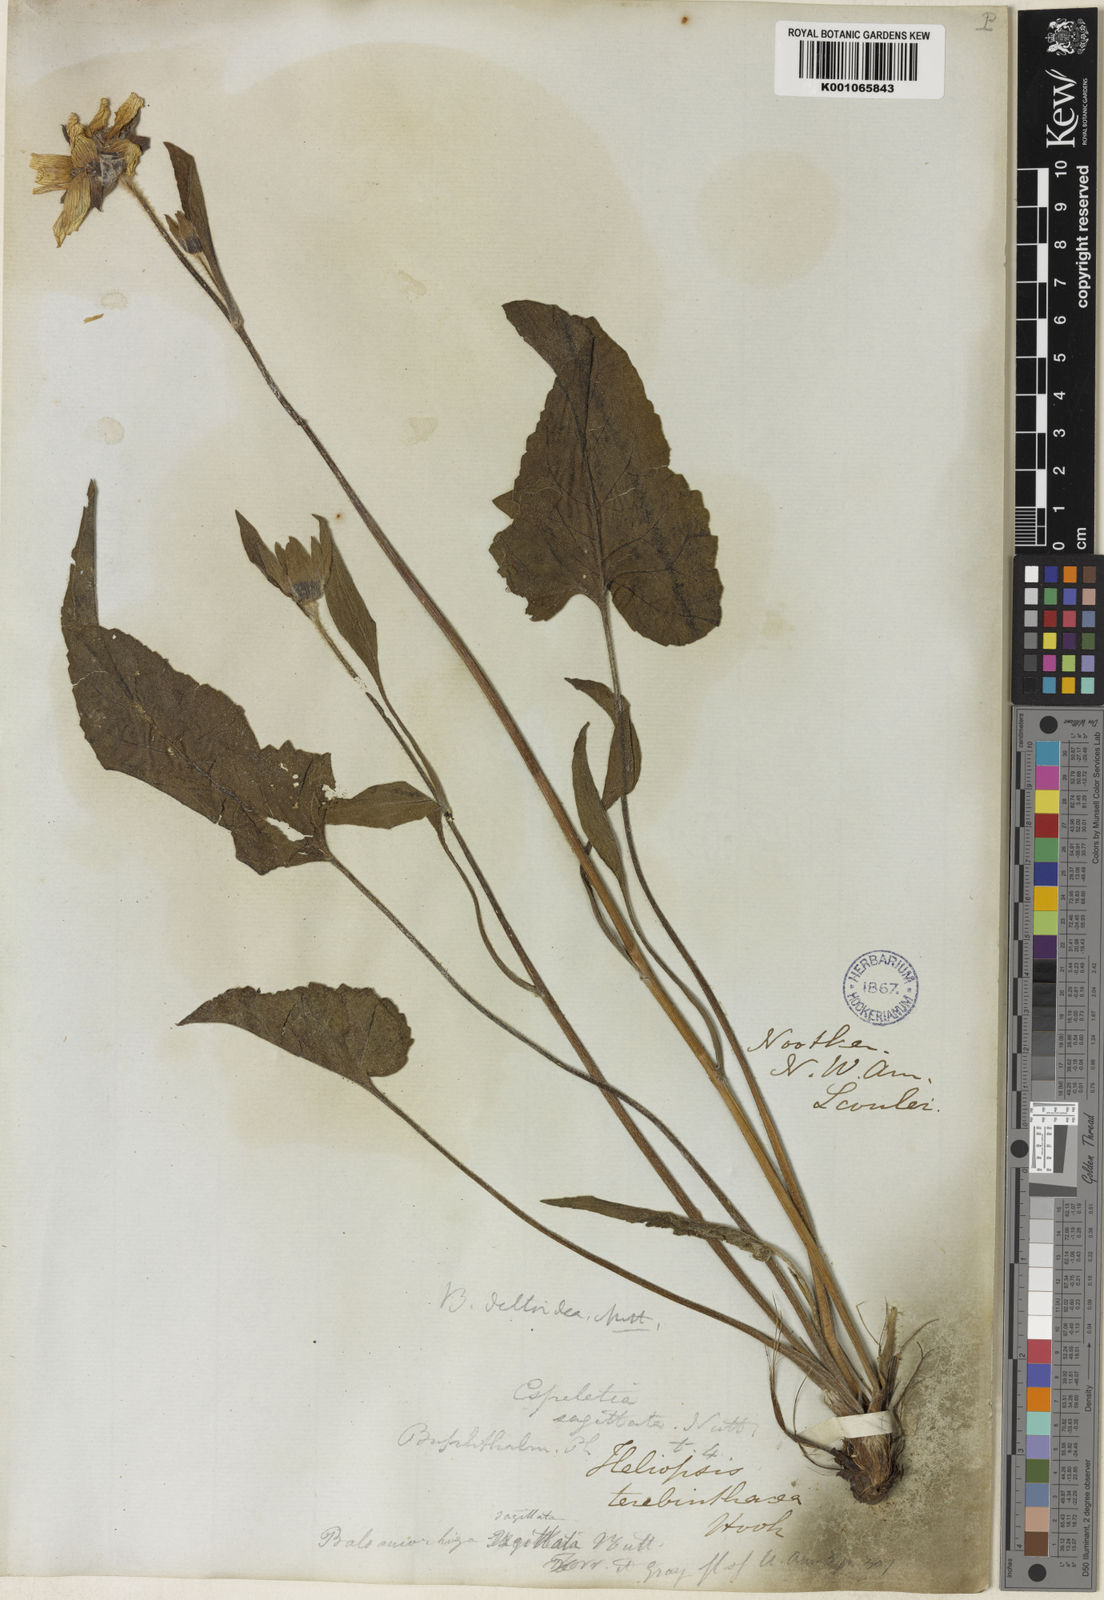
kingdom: Plantae
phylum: Tracheophyta
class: Magnoliopsida
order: Asterales
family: Asteraceae
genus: Balsamorhiza
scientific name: Balsamorhiza deltoidea
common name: Deltoid balsamroot
